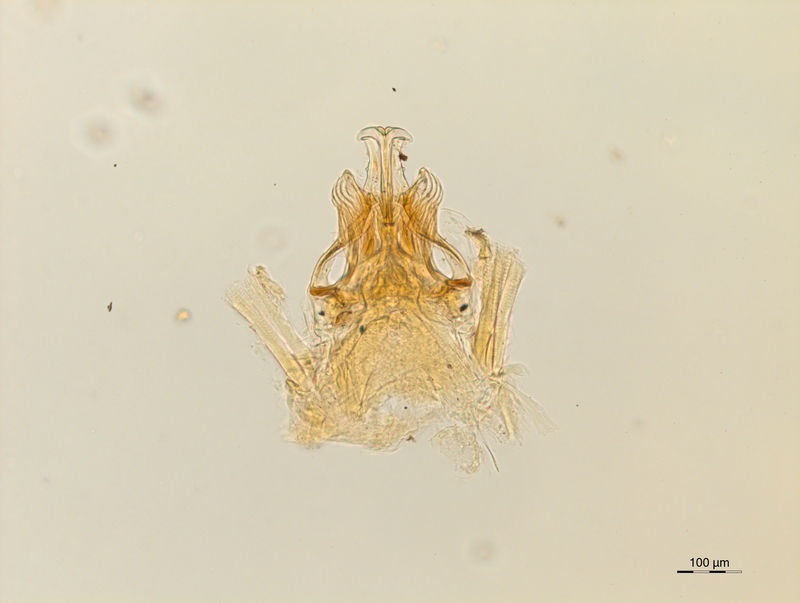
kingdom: Animalia
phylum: Arthropoda
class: Diplopoda
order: Chordeumatida
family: Opisthocheiridae
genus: Opisthocheiron
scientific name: Opisthocheiron elegans
